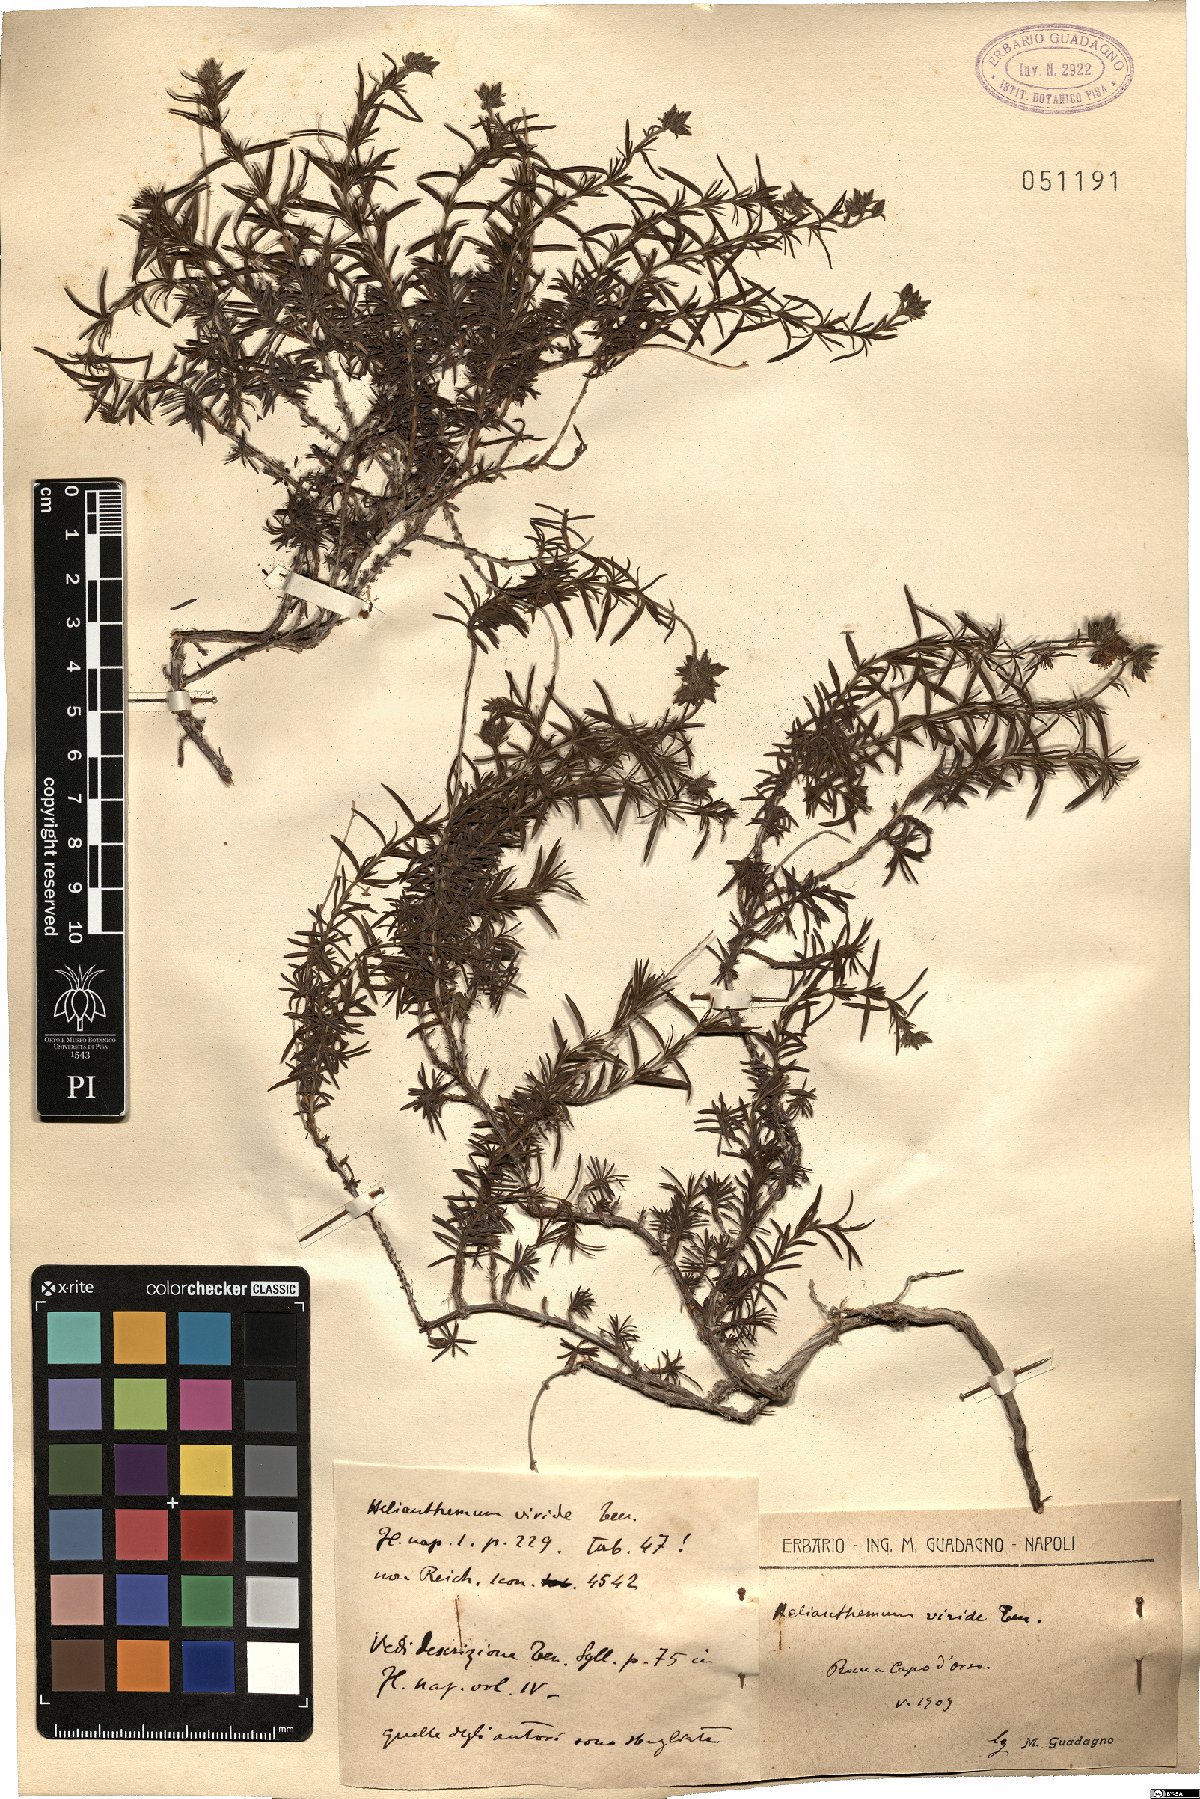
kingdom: Plantae
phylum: Tracheophyta
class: Magnoliopsida
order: Malvales
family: Cistaceae
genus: Fumana
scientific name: Fumana laevis
